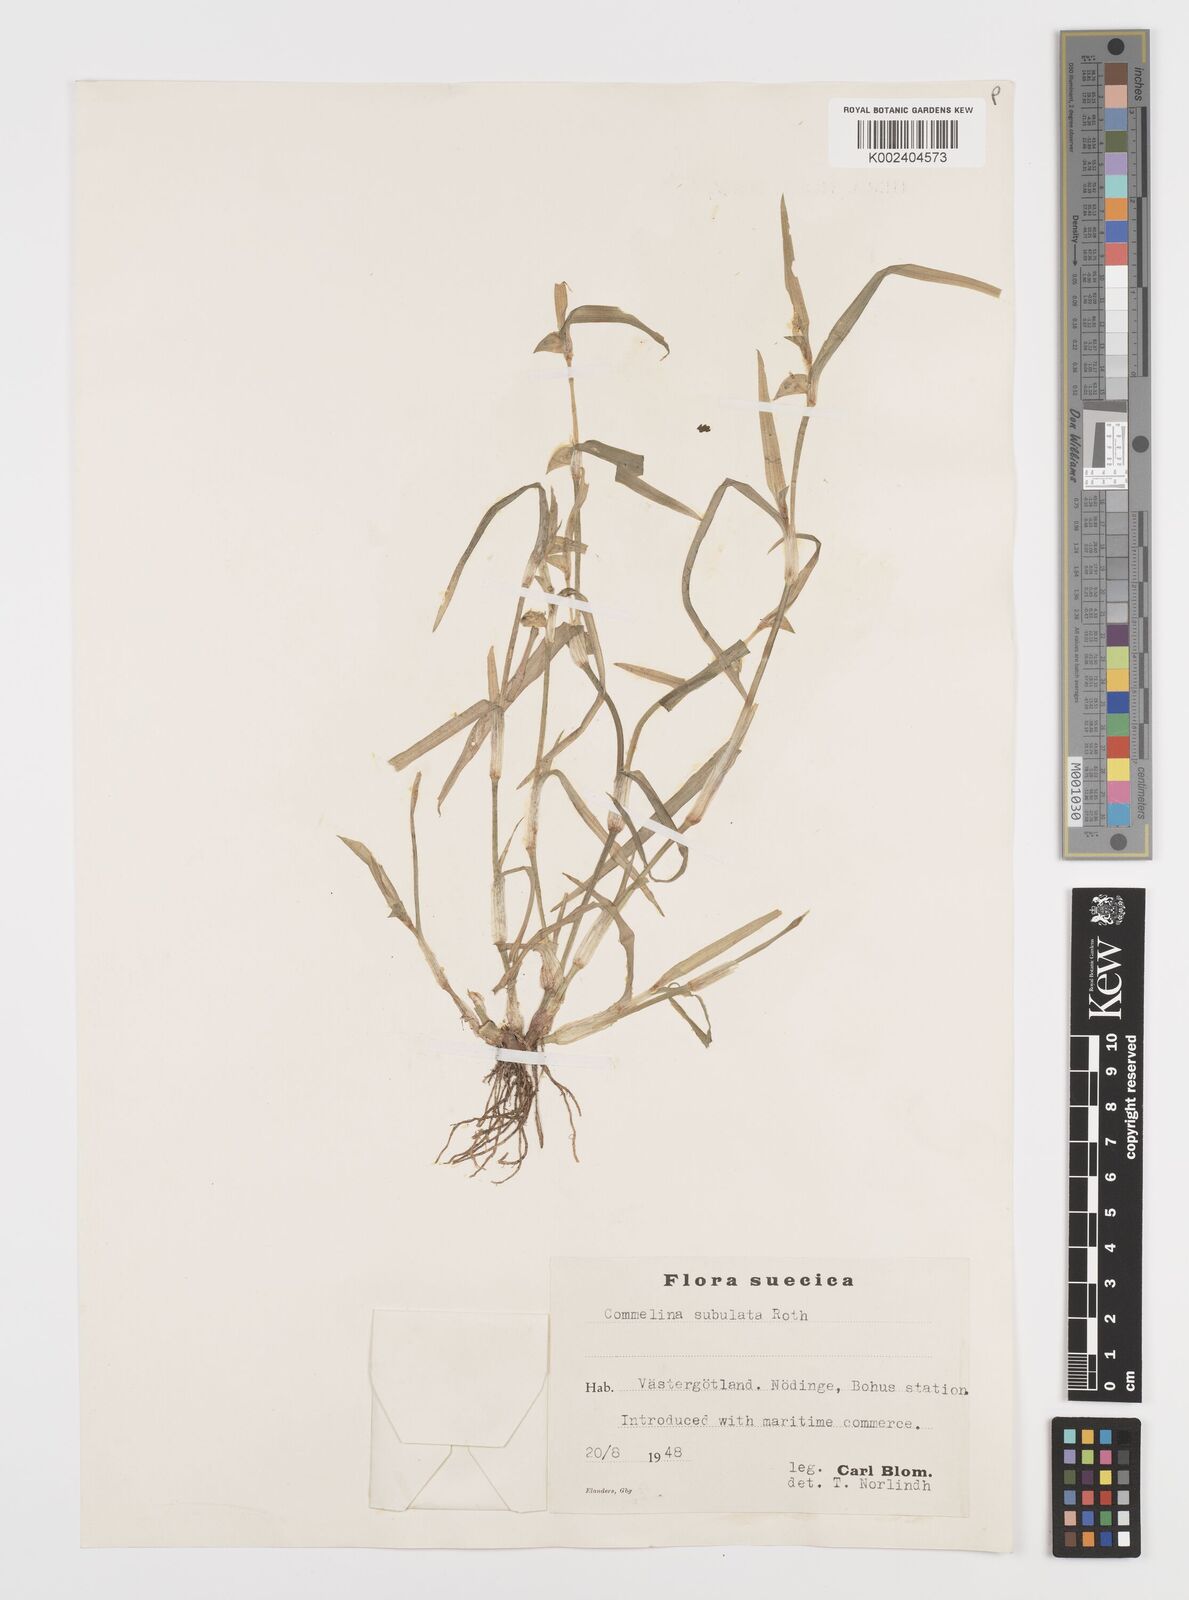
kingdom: Plantae
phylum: Tracheophyta
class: Liliopsida
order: Commelinales
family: Commelinaceae
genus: Commelina
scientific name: Commelina subulata
